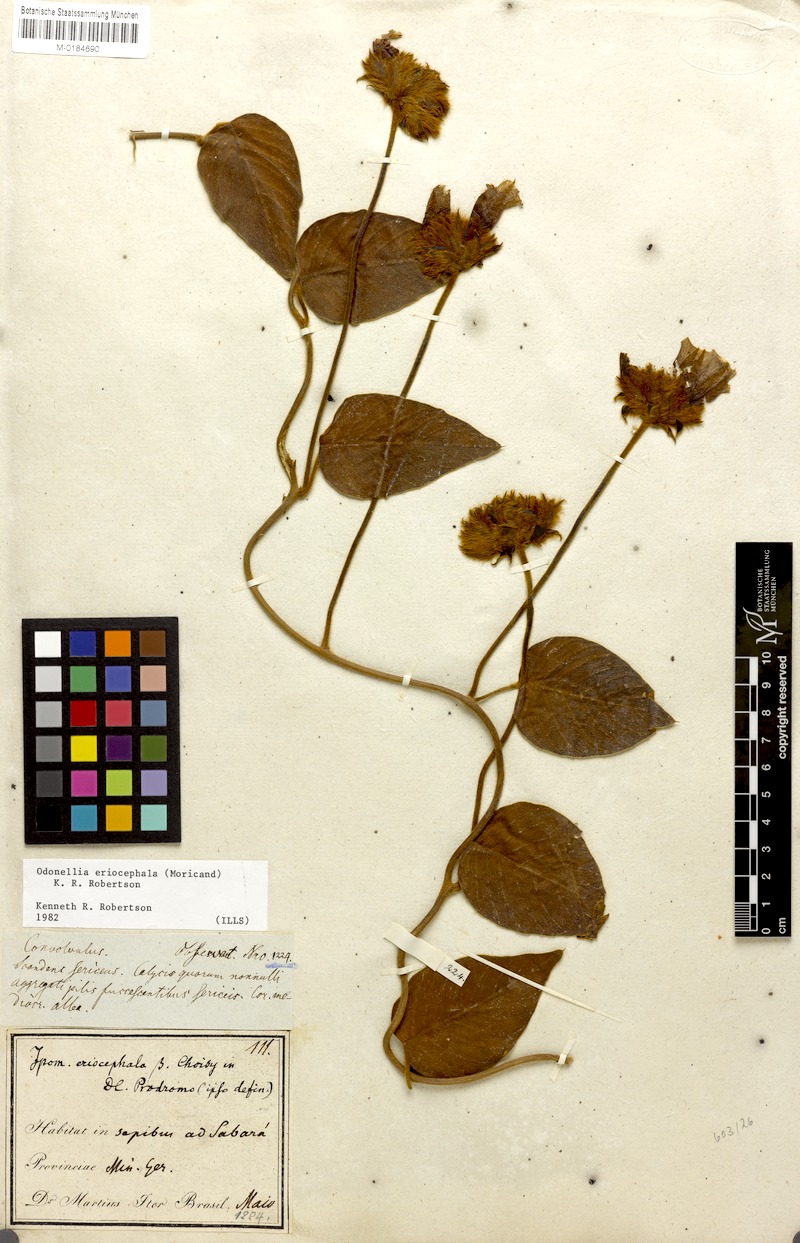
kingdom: Plantae
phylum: Tracheophyta
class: Magnoliopsida
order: Solanales
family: Convolvulaceae
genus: Odonellia
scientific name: Odonellia eriocephala
